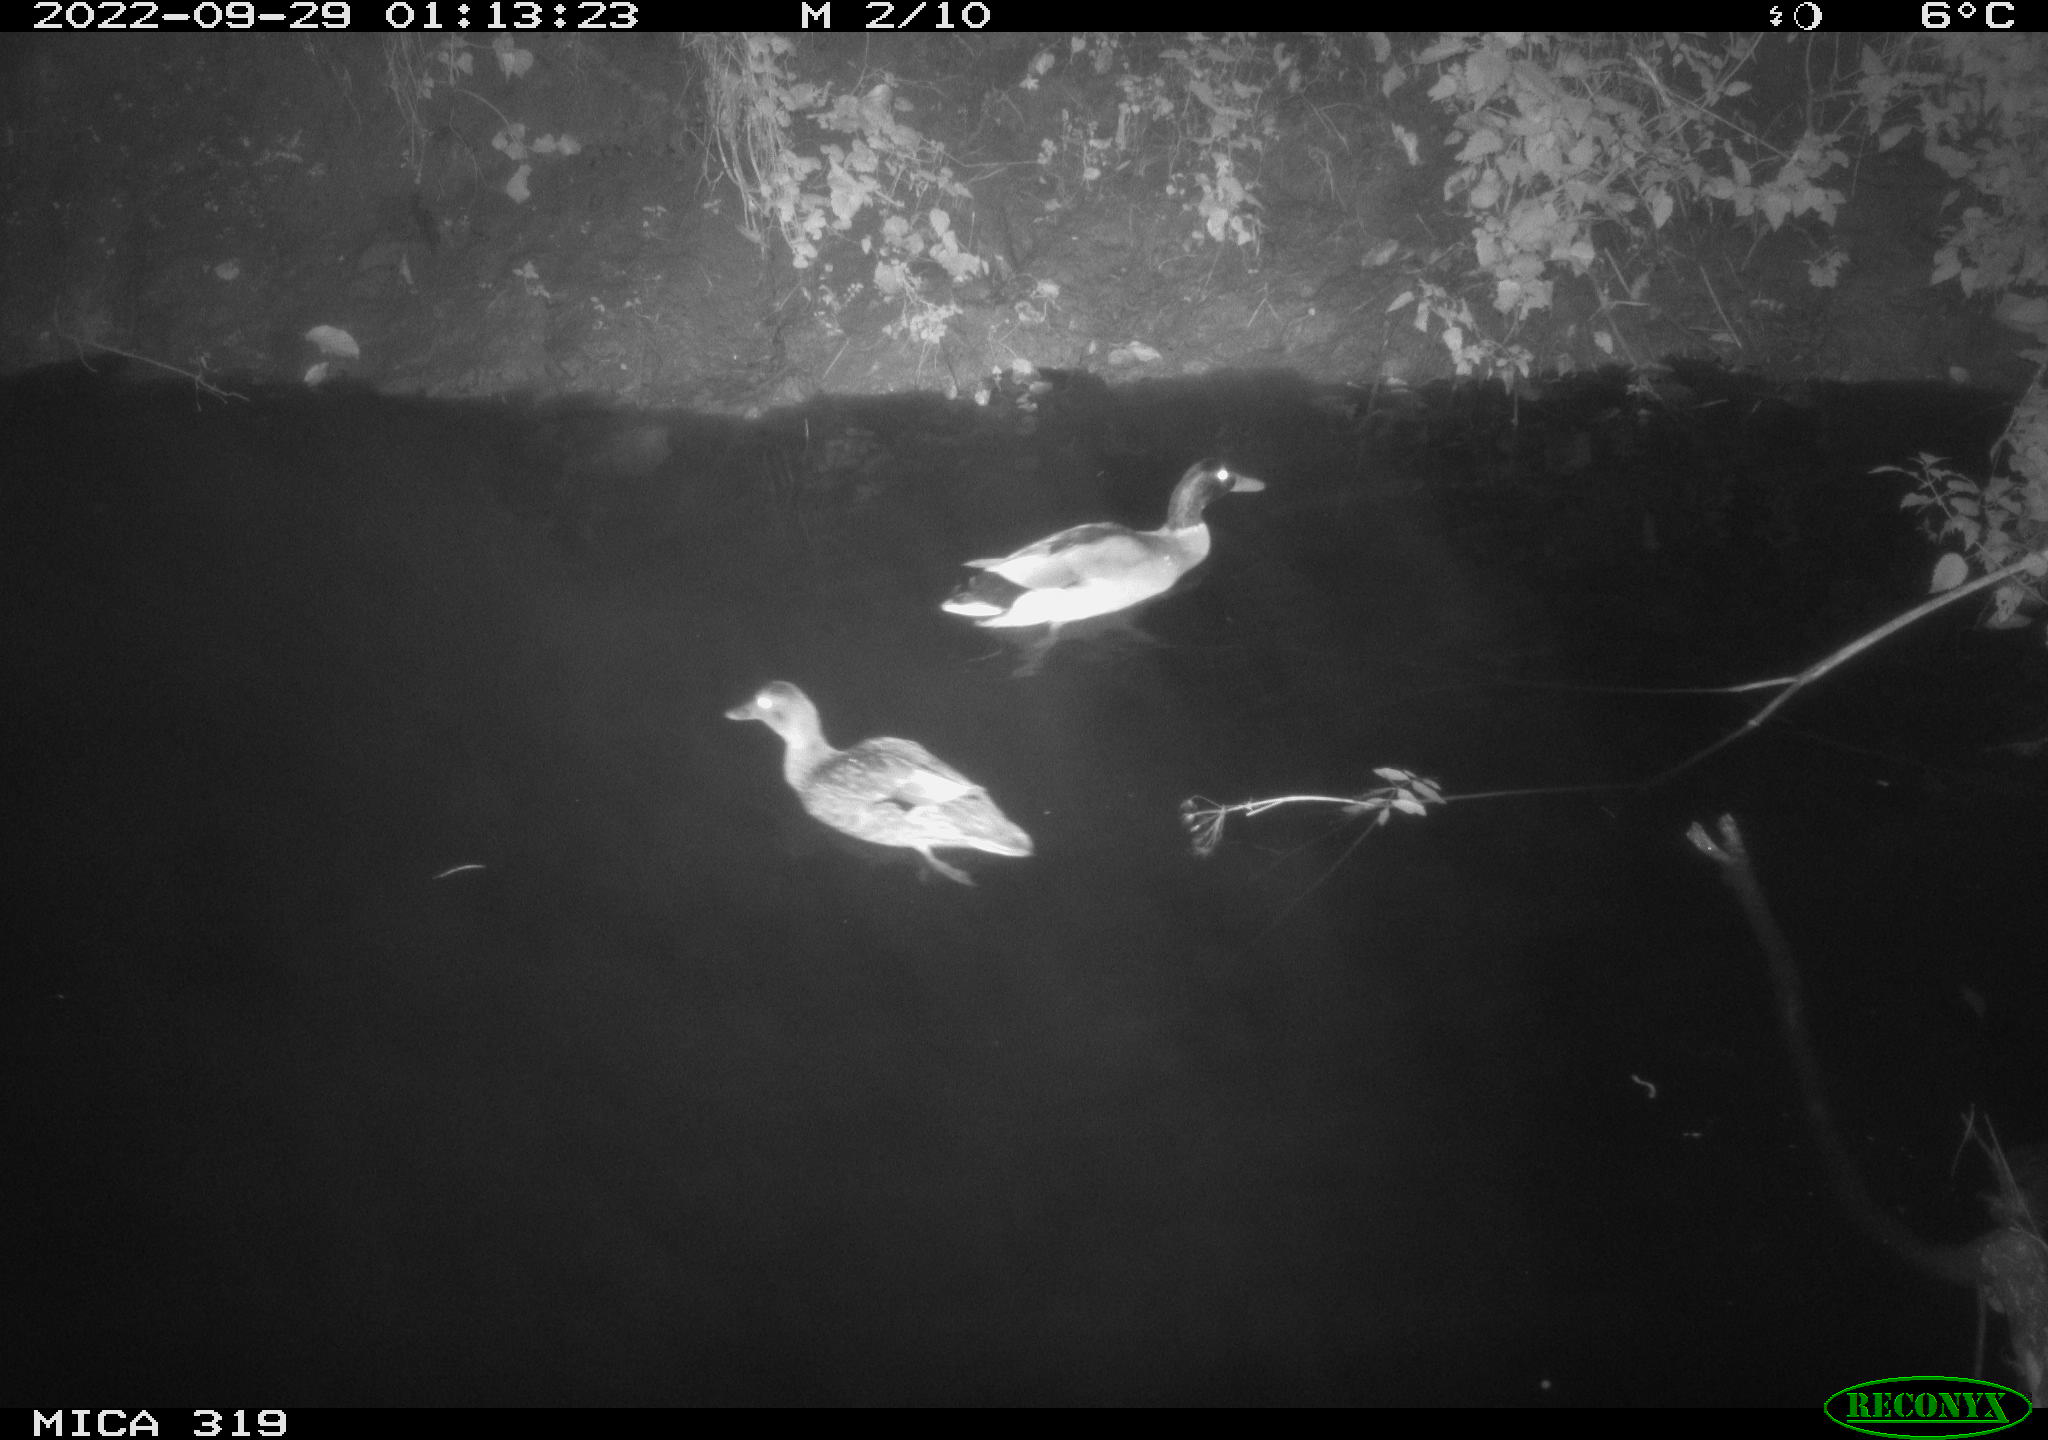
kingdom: Animalia
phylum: Chordata
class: Aves
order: Anseriformes
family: Anatidae
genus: Anas
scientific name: Anas
